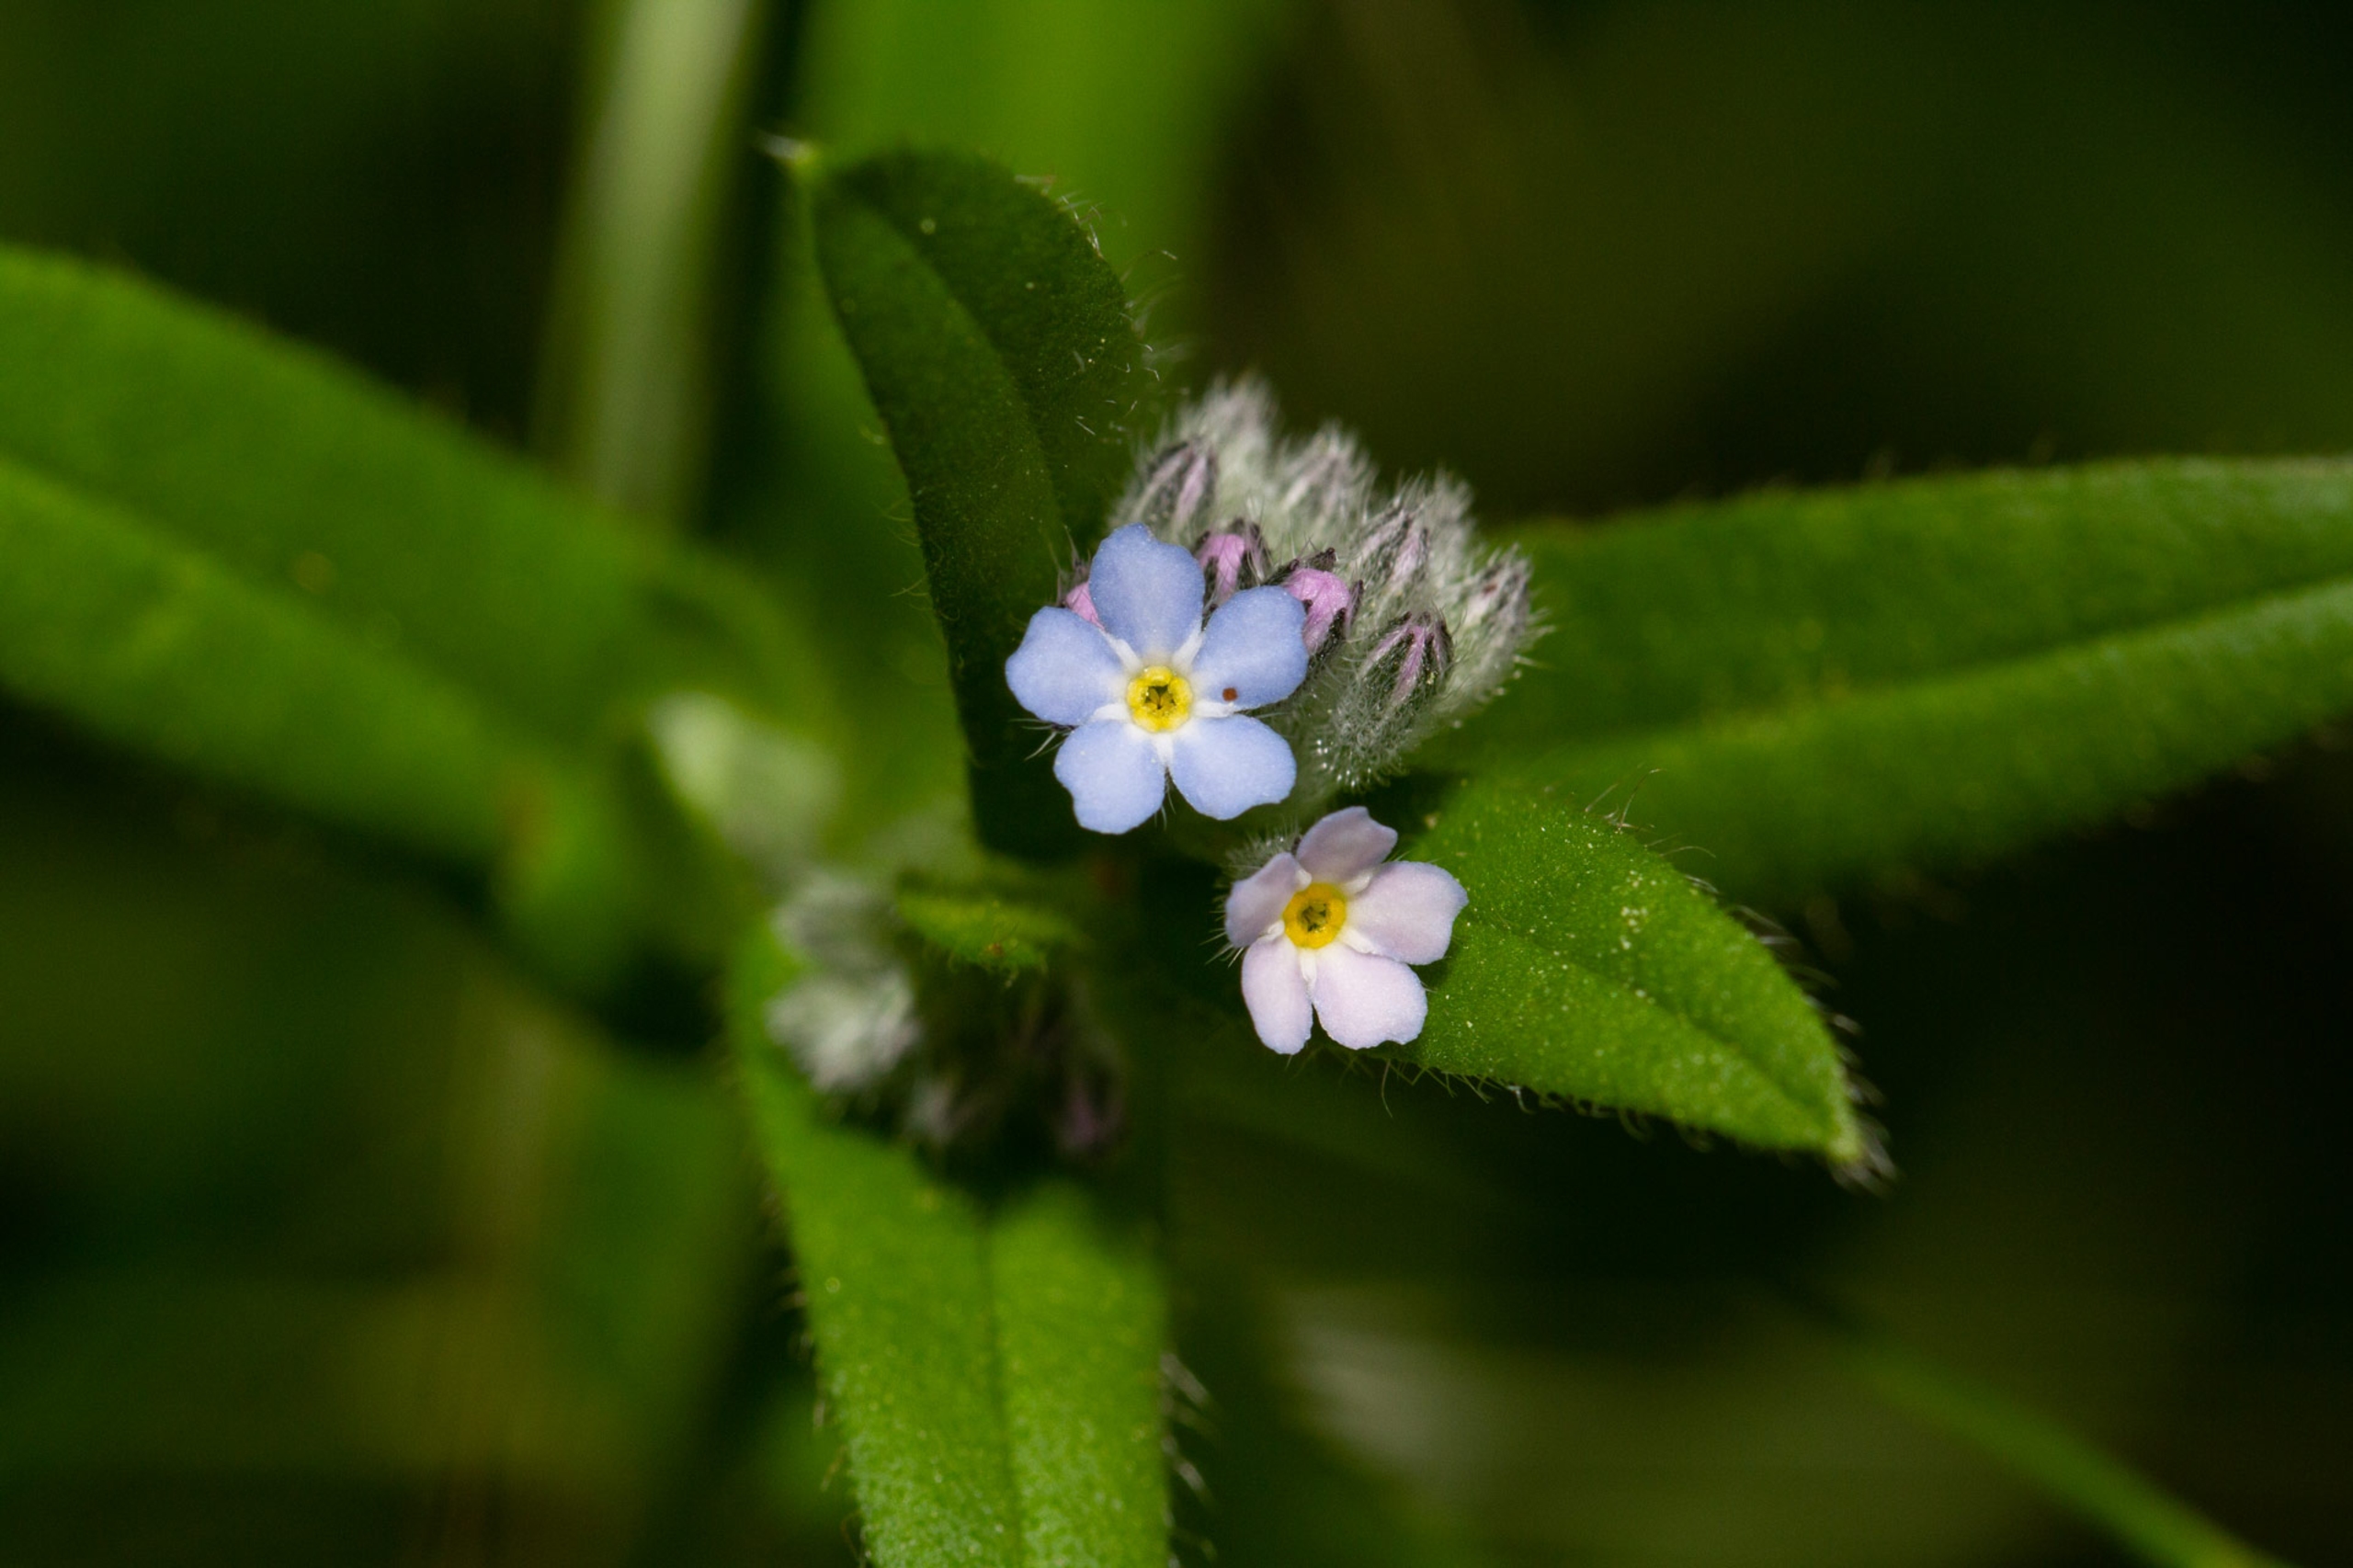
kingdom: Plantae
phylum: Tracheophyta
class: Magnoliopsida
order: Boraginales
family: Boraginaceae
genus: Myosotis
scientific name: Myosotis sylvatica
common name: Skov-forglemmigej
